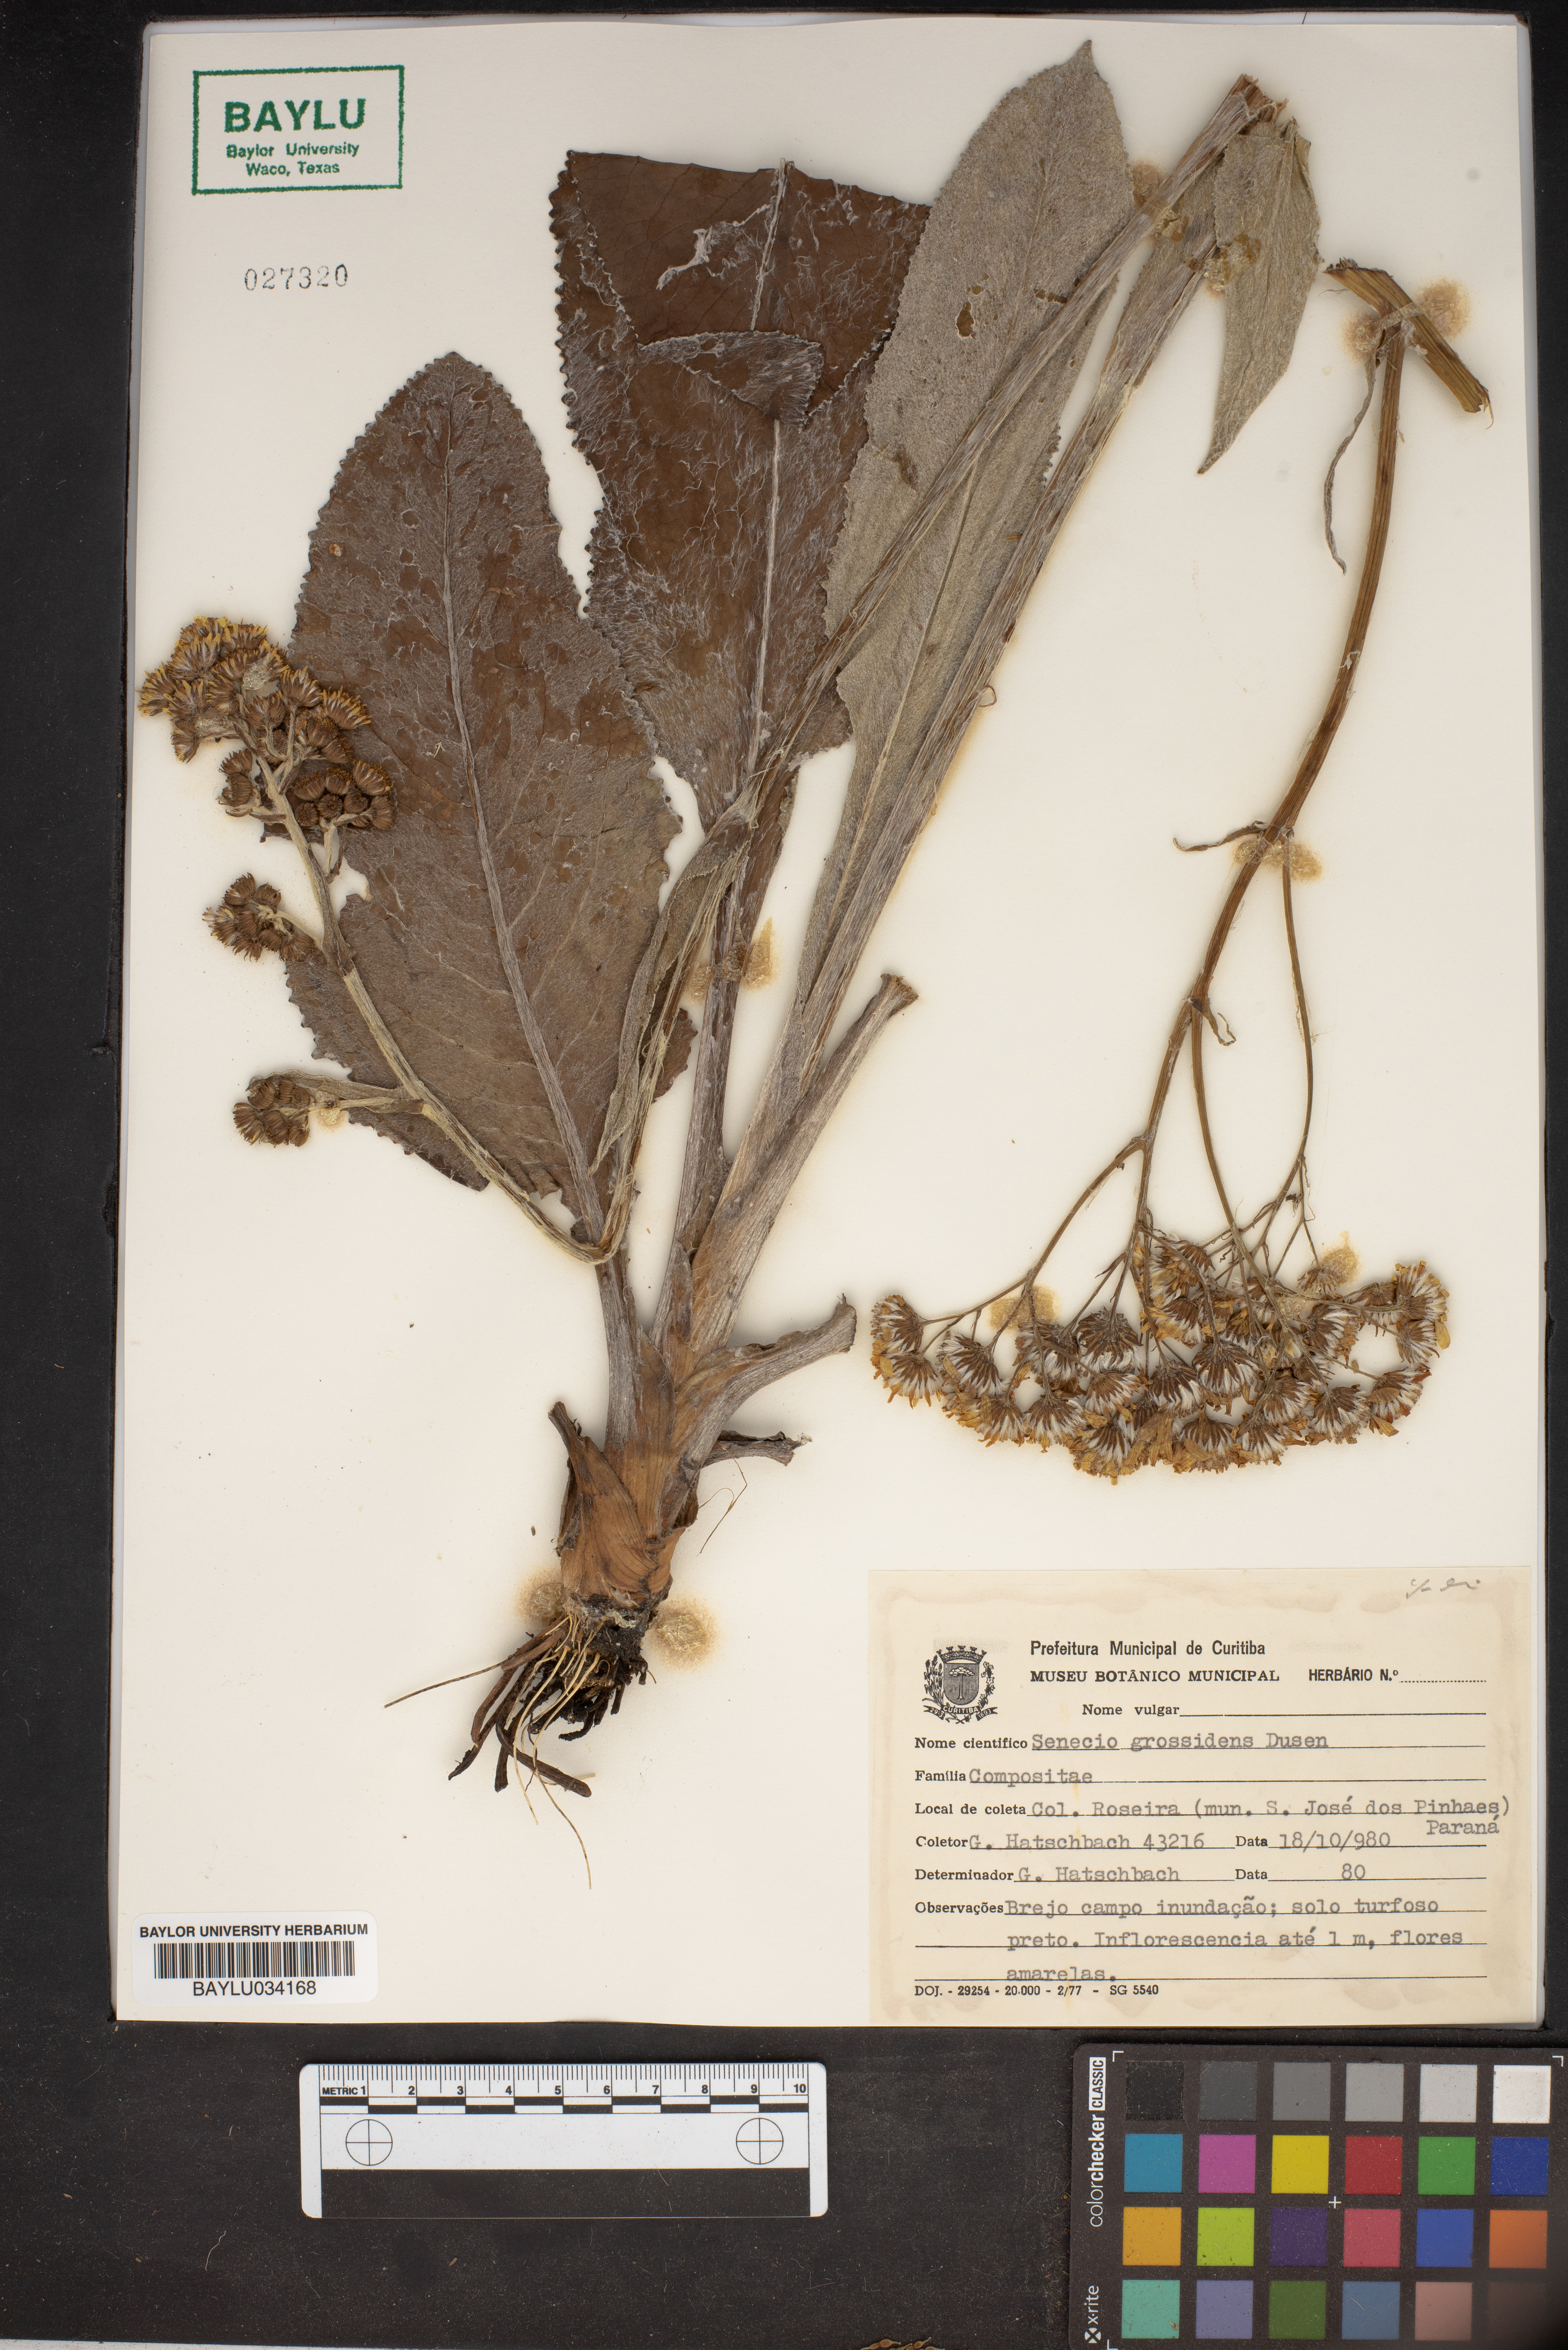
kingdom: Plantae
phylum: Tracheophyta
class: Magnoliopsida
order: Asterales
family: Asteraceae
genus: Senecio
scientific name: Senecio grossidens
